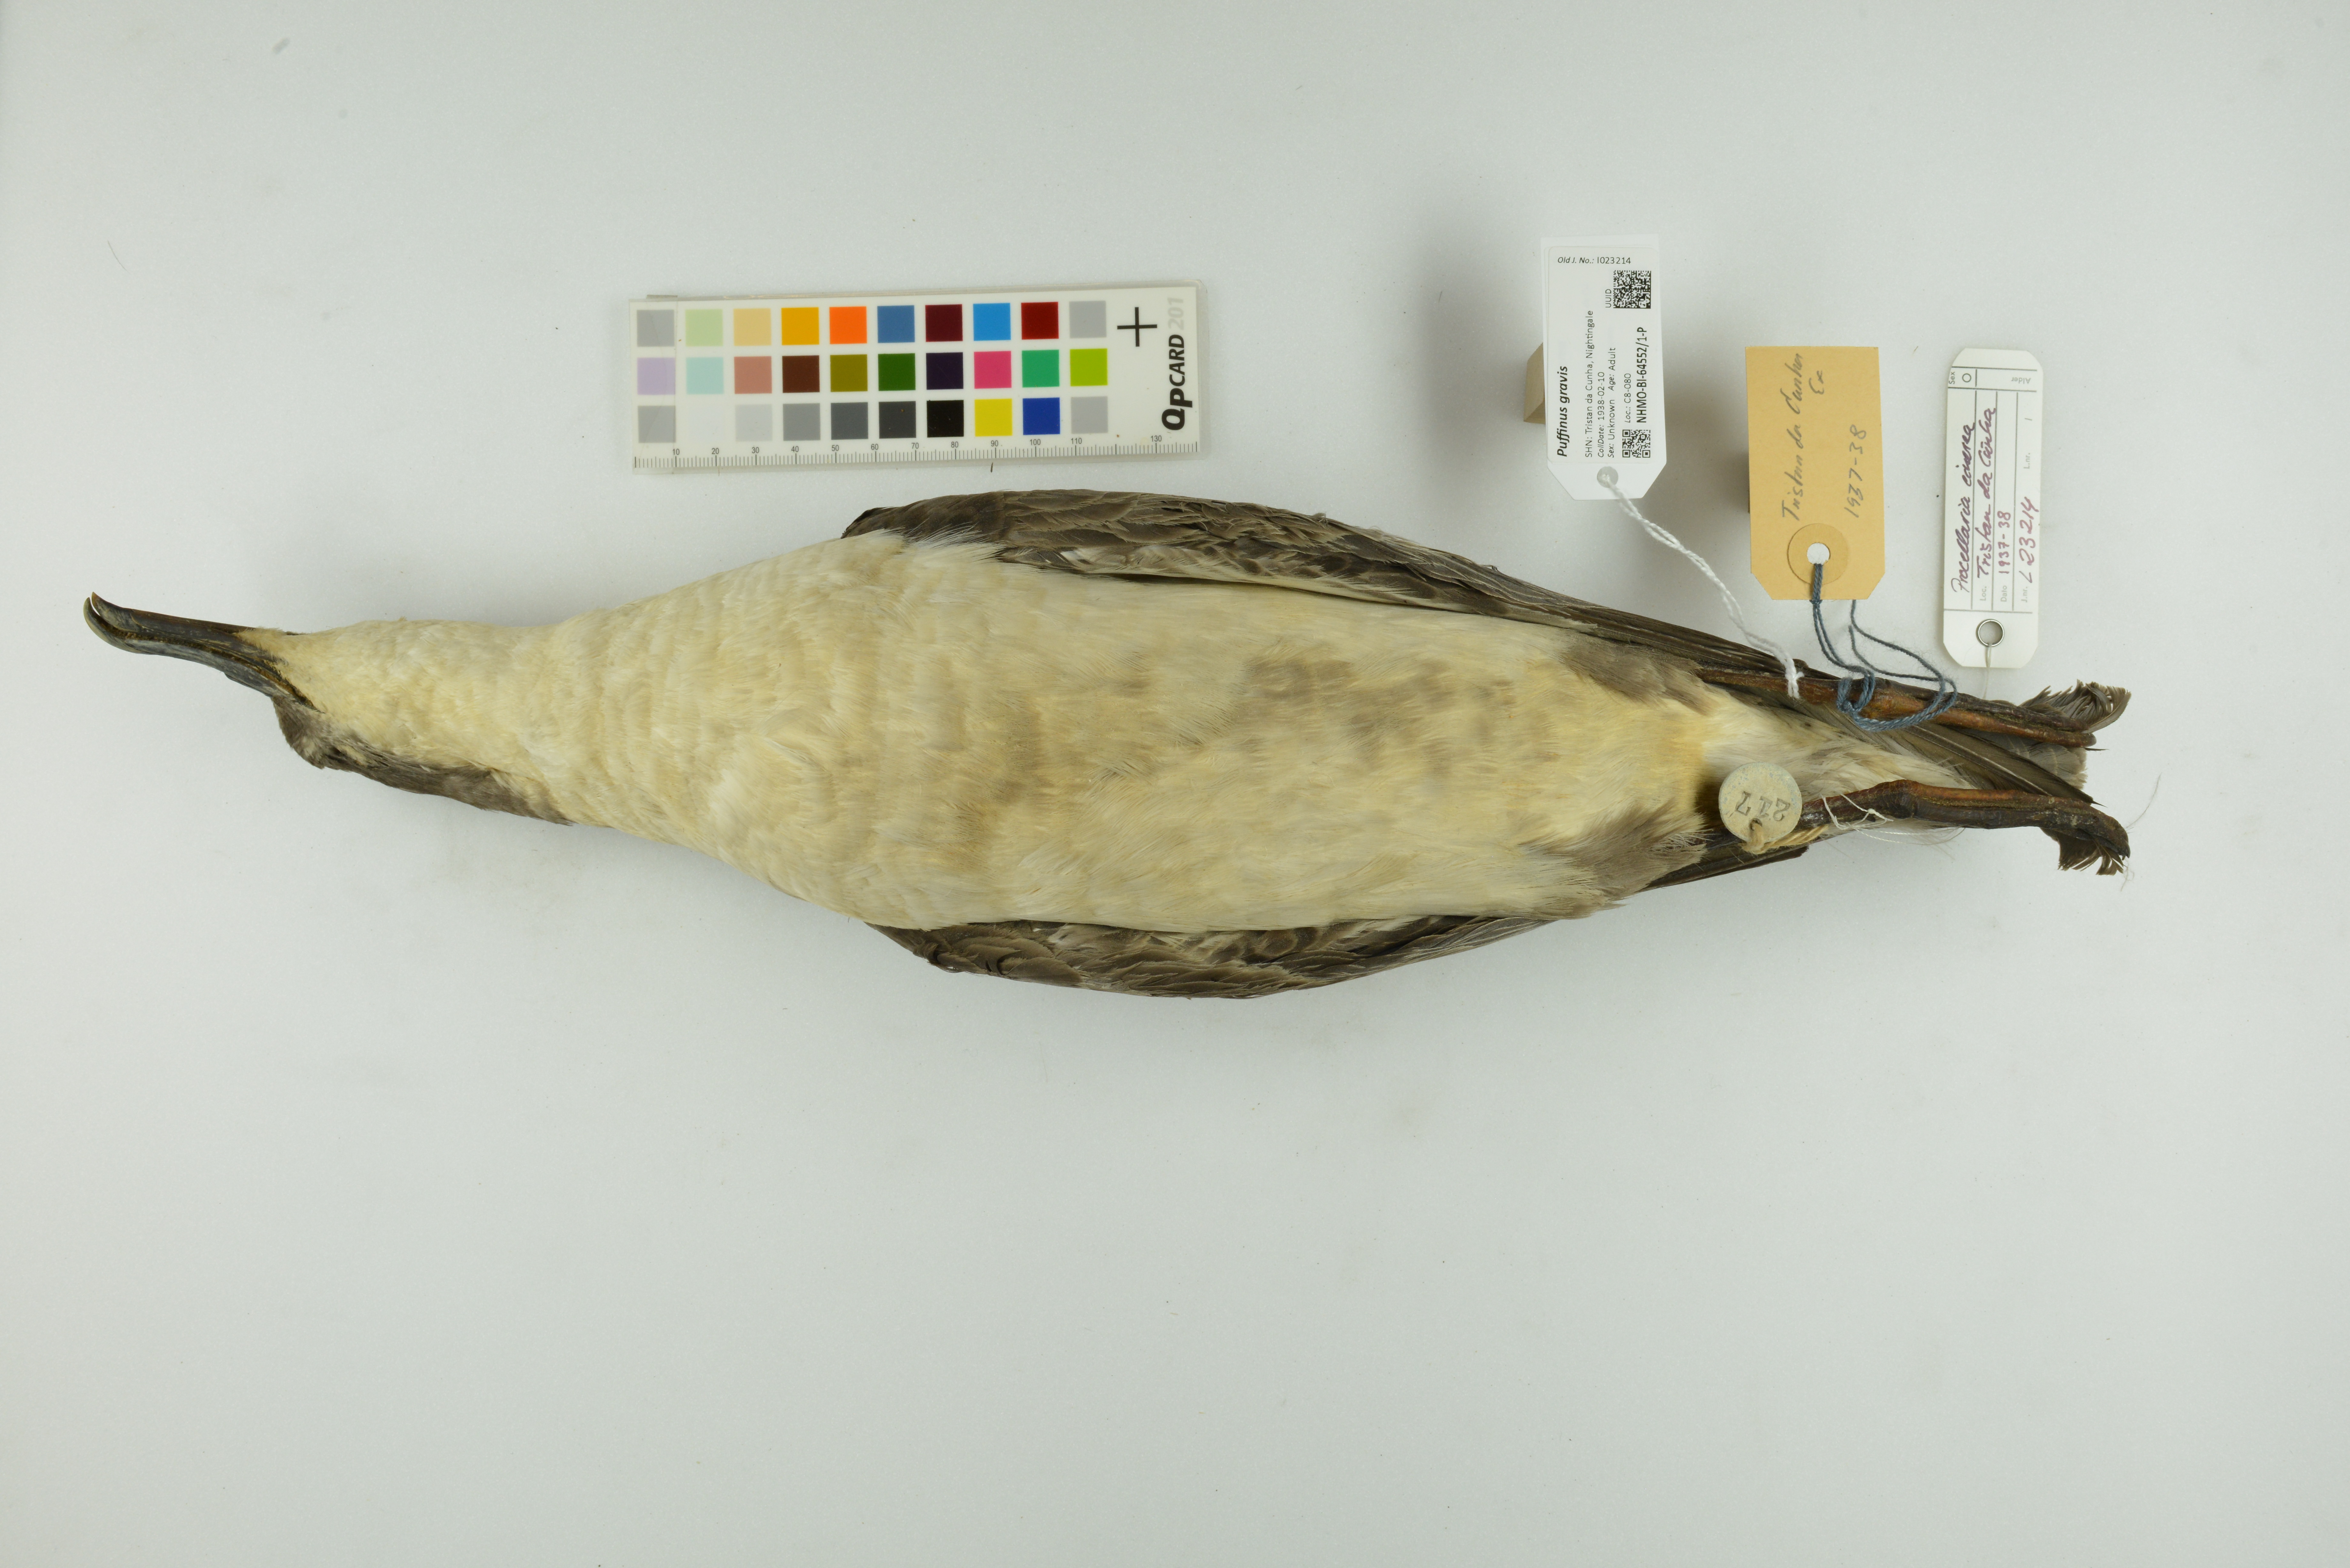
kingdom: Animalia
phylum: Chordata
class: Aves
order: Procellariiformes
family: Procellariidae
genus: Puffinus
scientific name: Puffinus gravis
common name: Great shearwater
